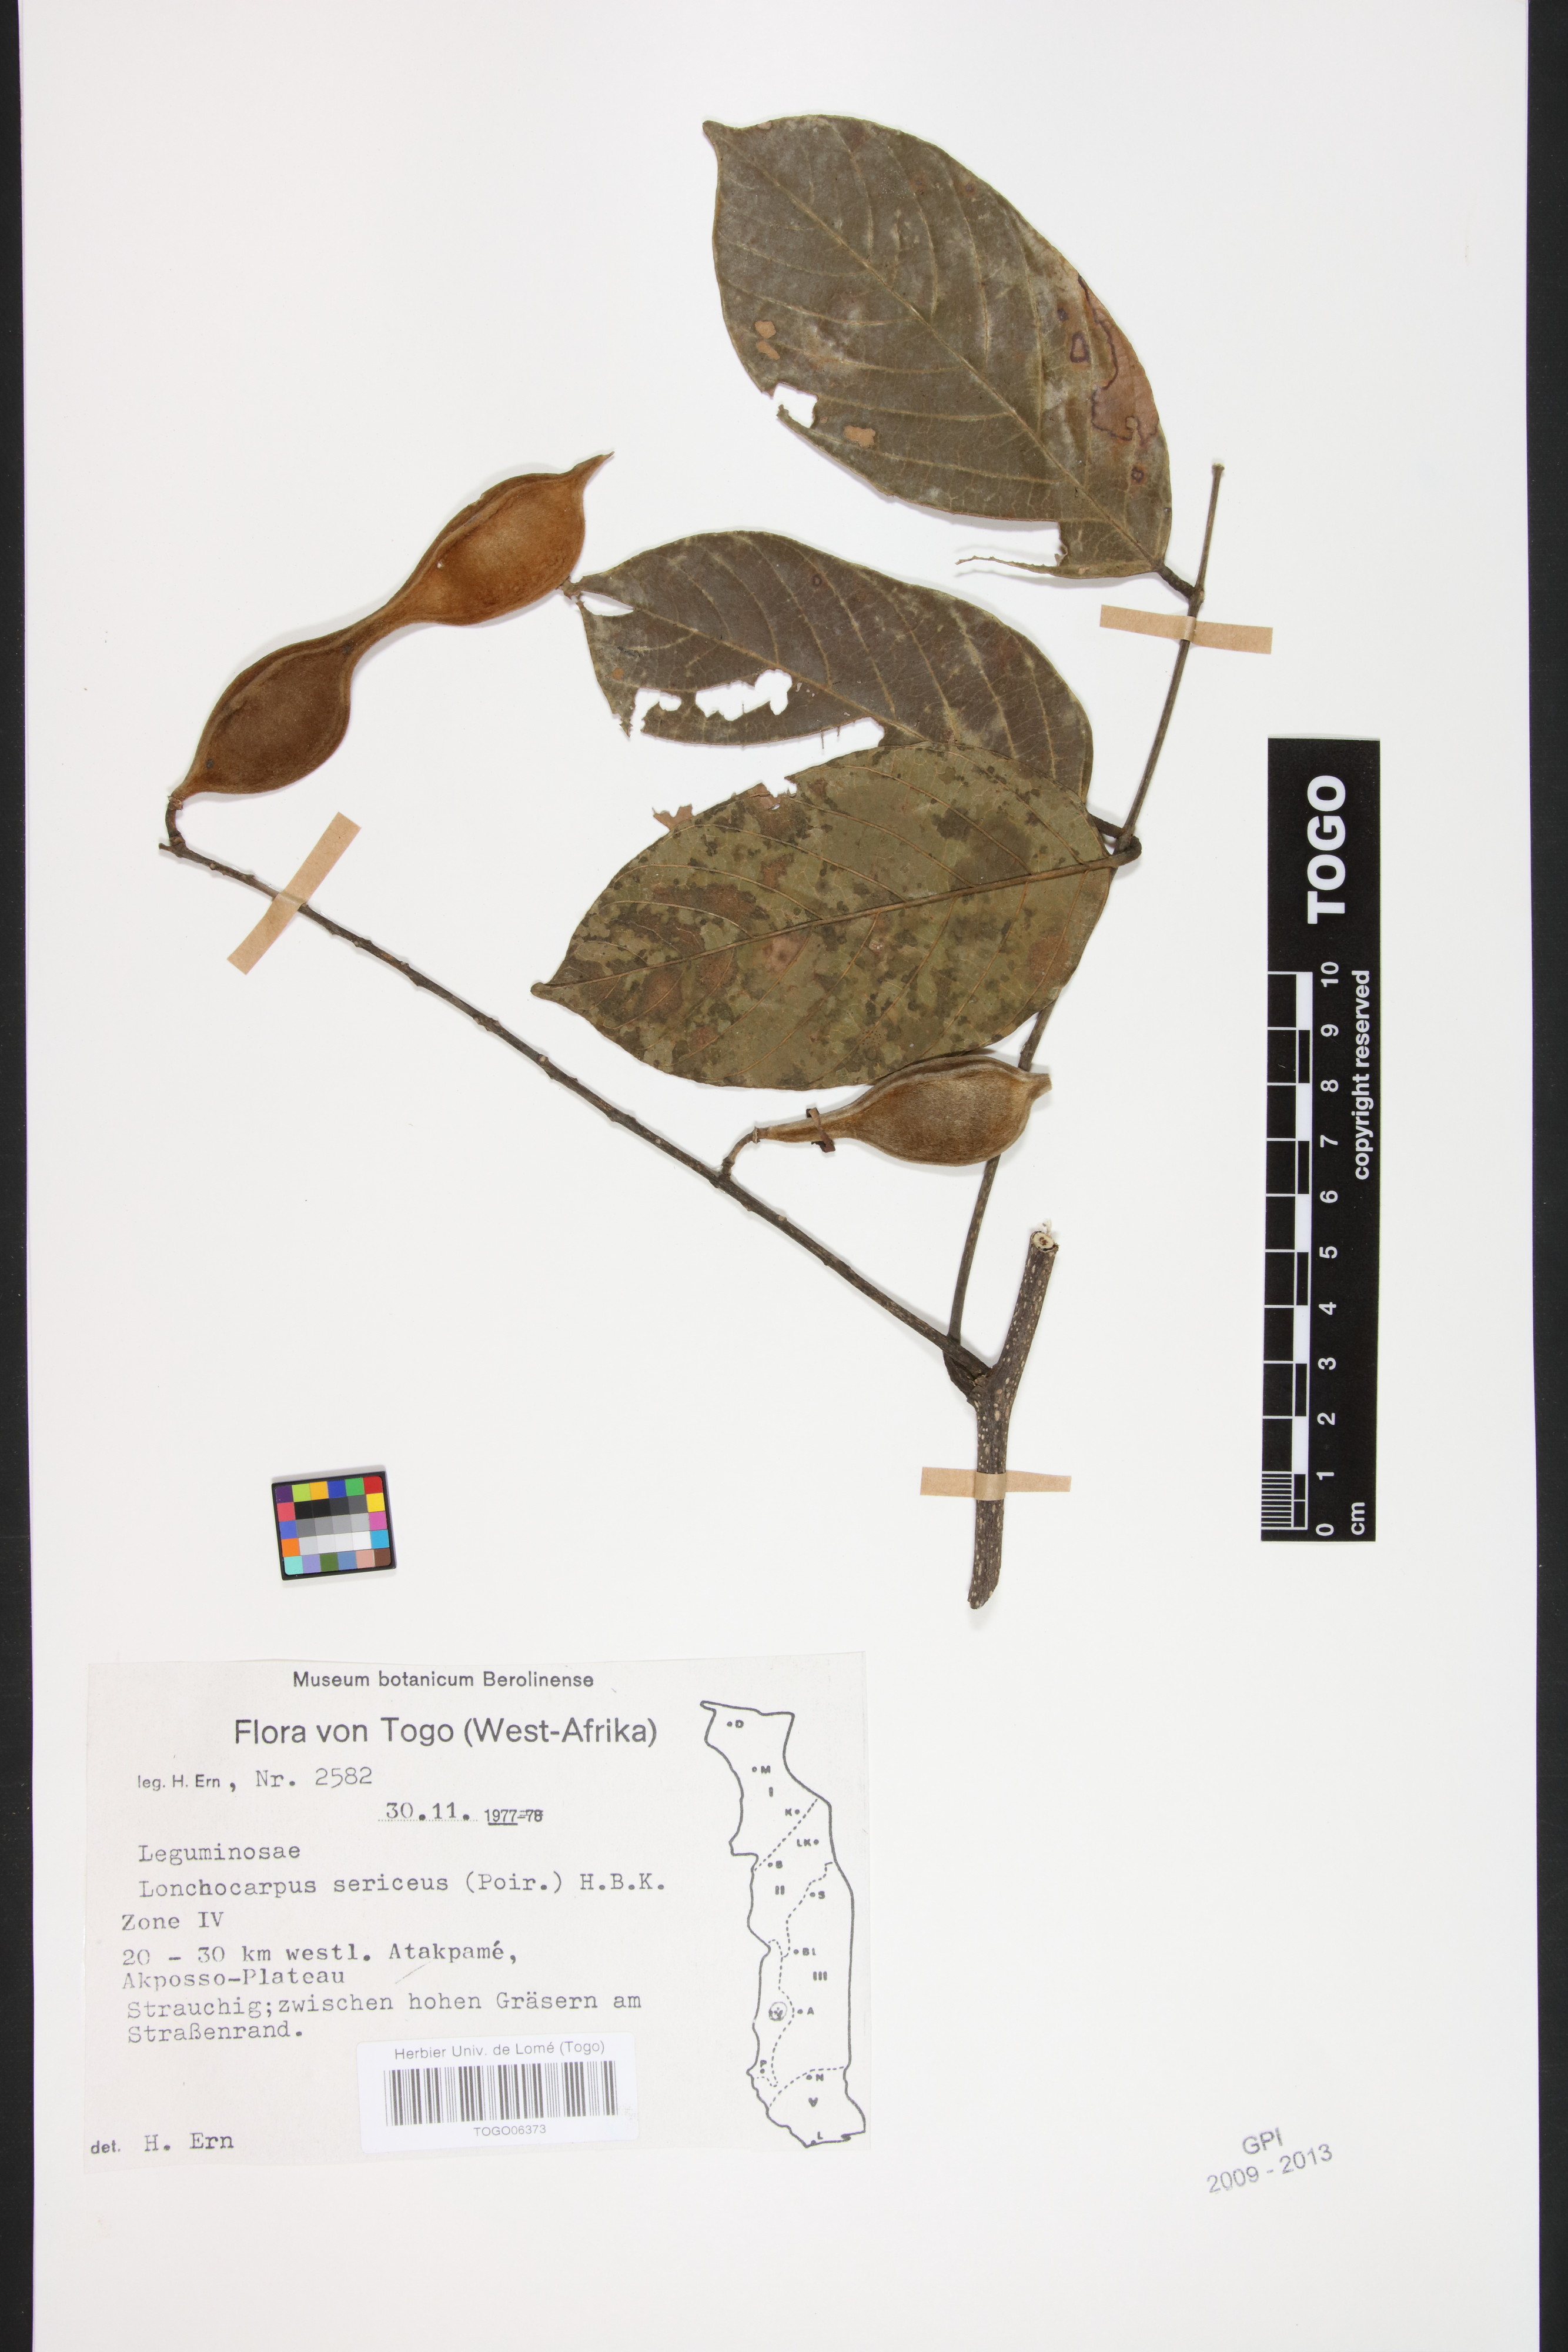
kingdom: Plantae
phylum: Tracheophyta
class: Magnoliopsida
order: Fabales
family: Fabaceae
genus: Lonchocarpus
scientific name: Lonchocarpus sericeus
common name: Savonette
